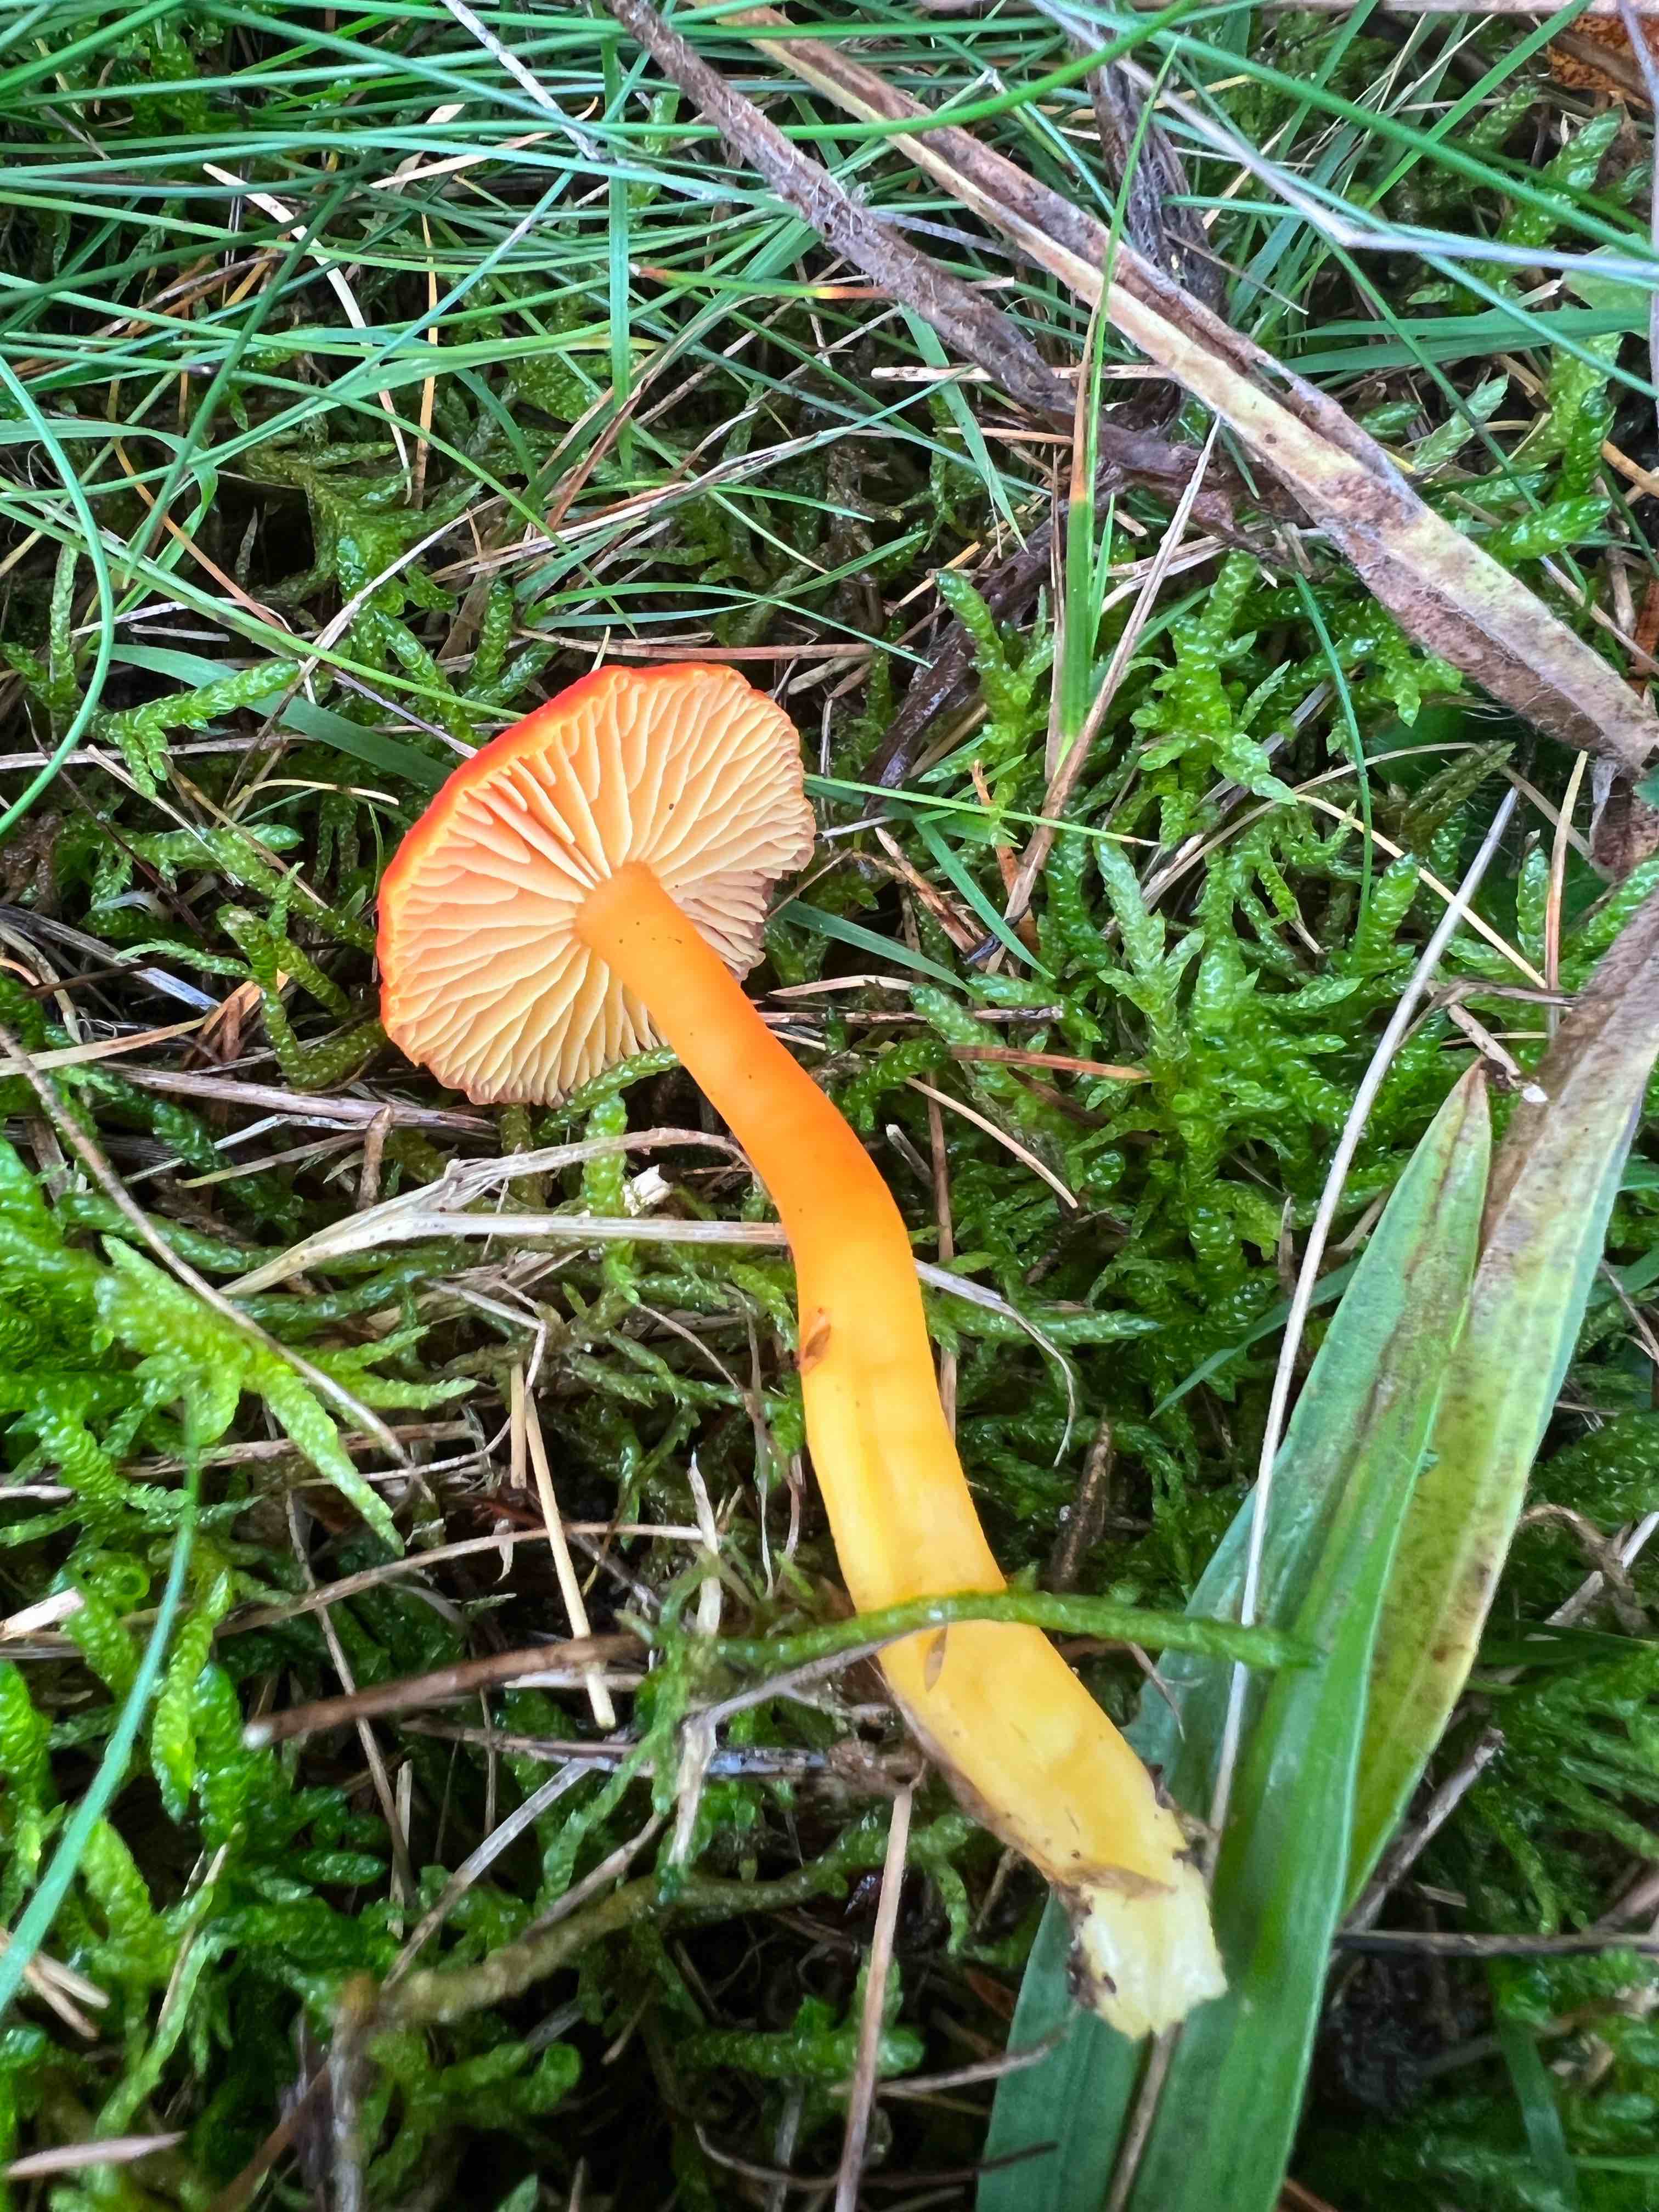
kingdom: Fungi
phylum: Basidiomycota
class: Agaricomycetes
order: Agaricales
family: Hygrophoraceae
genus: Hygrocybe
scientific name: Hygrocybe miniata
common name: mønje-vokshat
